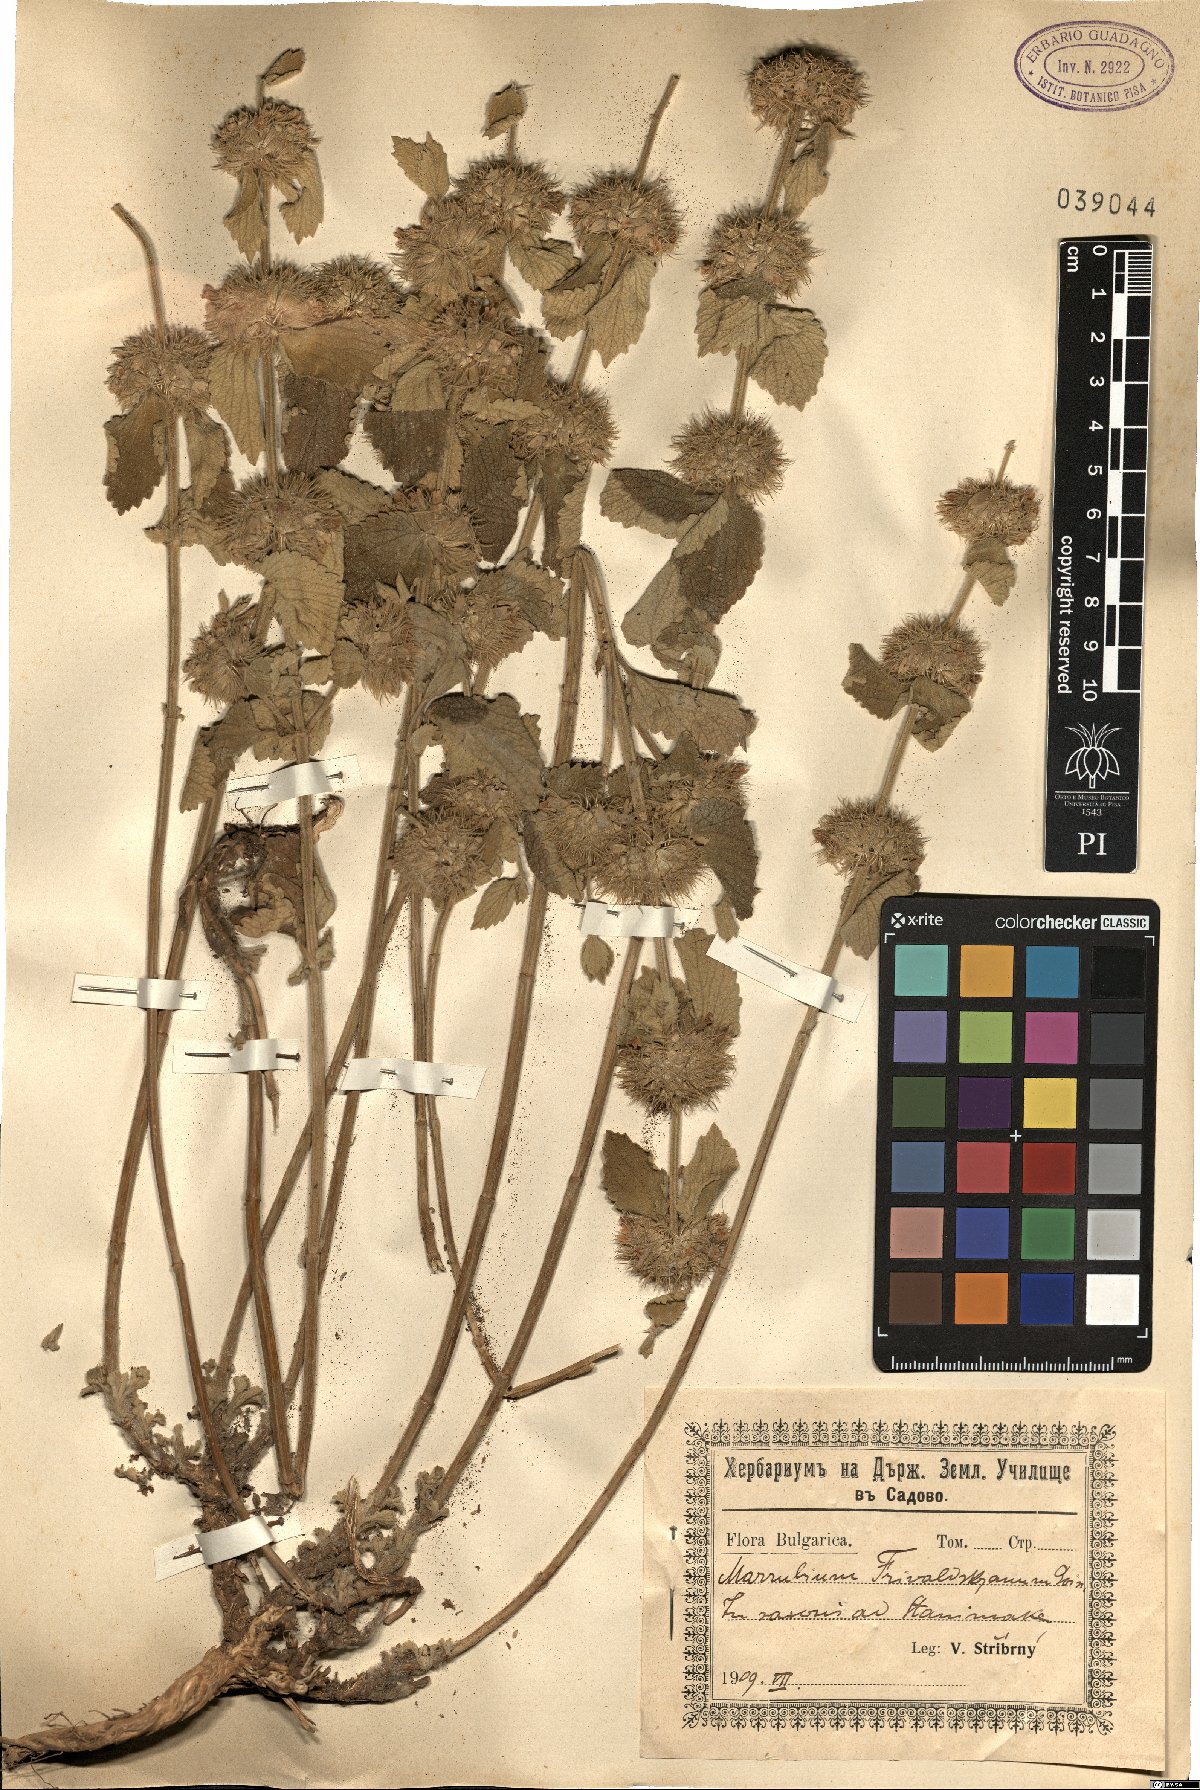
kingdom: Plantae
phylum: Tracheophyta
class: Magnoliopsida
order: Lamiales
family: Lamiaceae
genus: Marrubium
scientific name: Marrubium friwaldskyanum
